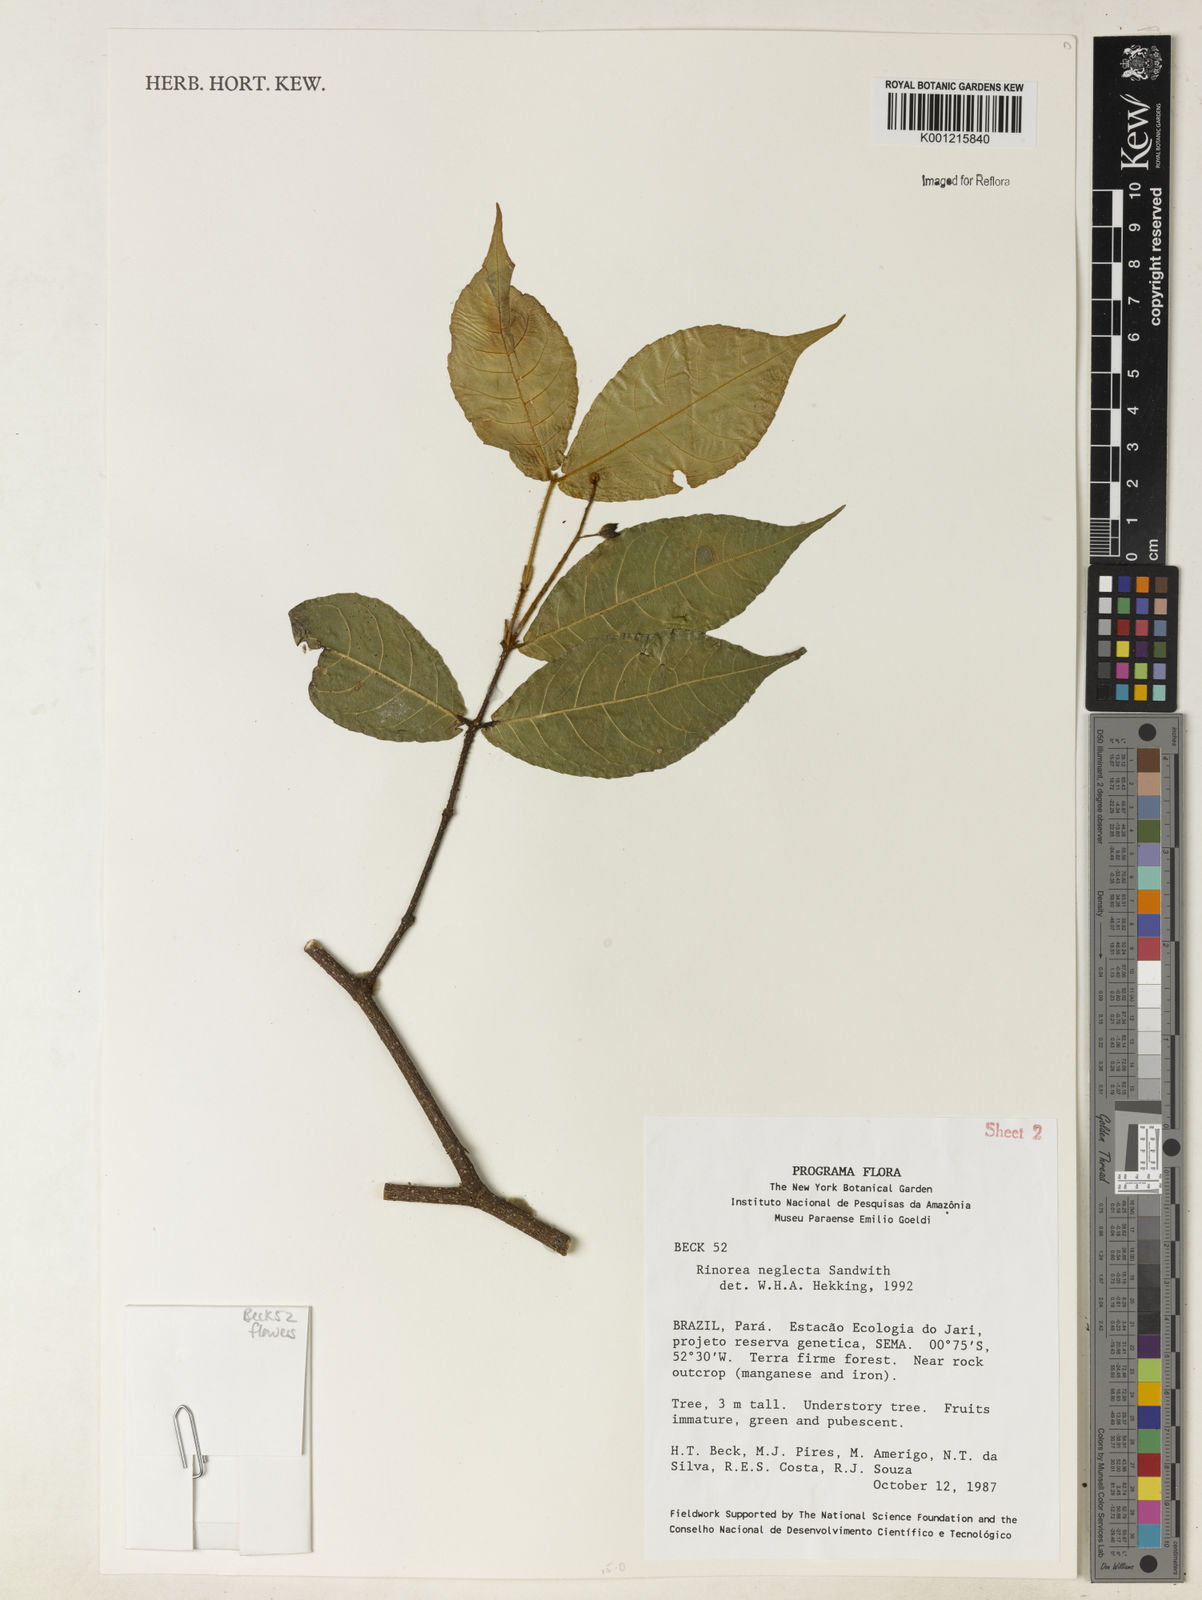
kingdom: Plantae
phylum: Tracheophyta
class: Magnoliopsida
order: Malpighiales
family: Violaceae
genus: Rinorea
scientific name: Rinorea neglecta
